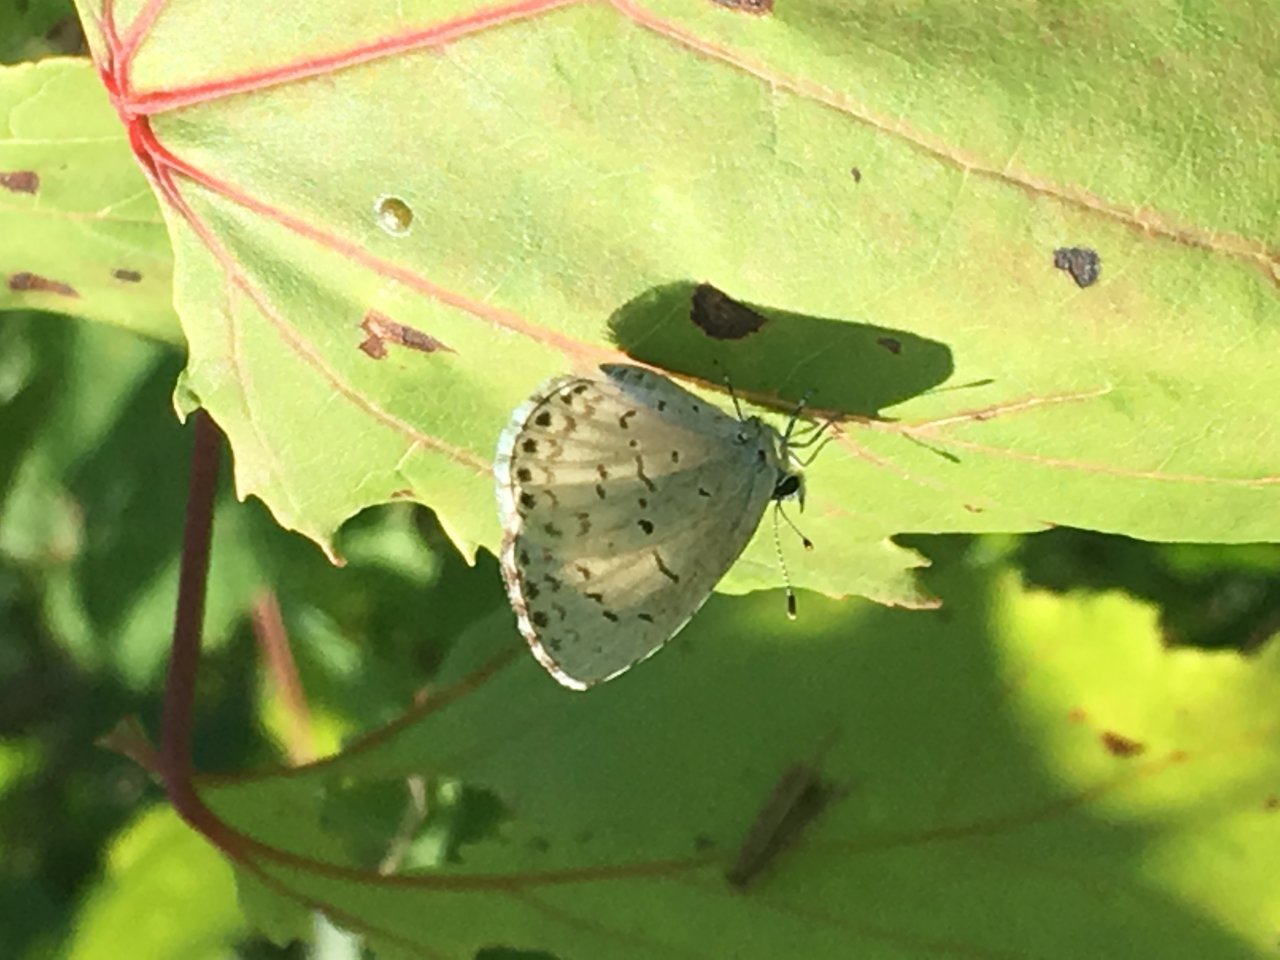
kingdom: Animalia
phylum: Arthropoda
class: Insecta
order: Lepidoptera
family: Lycaenidae
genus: Cyaniris
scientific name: Cyaniris neglecta
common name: Summer Azure
